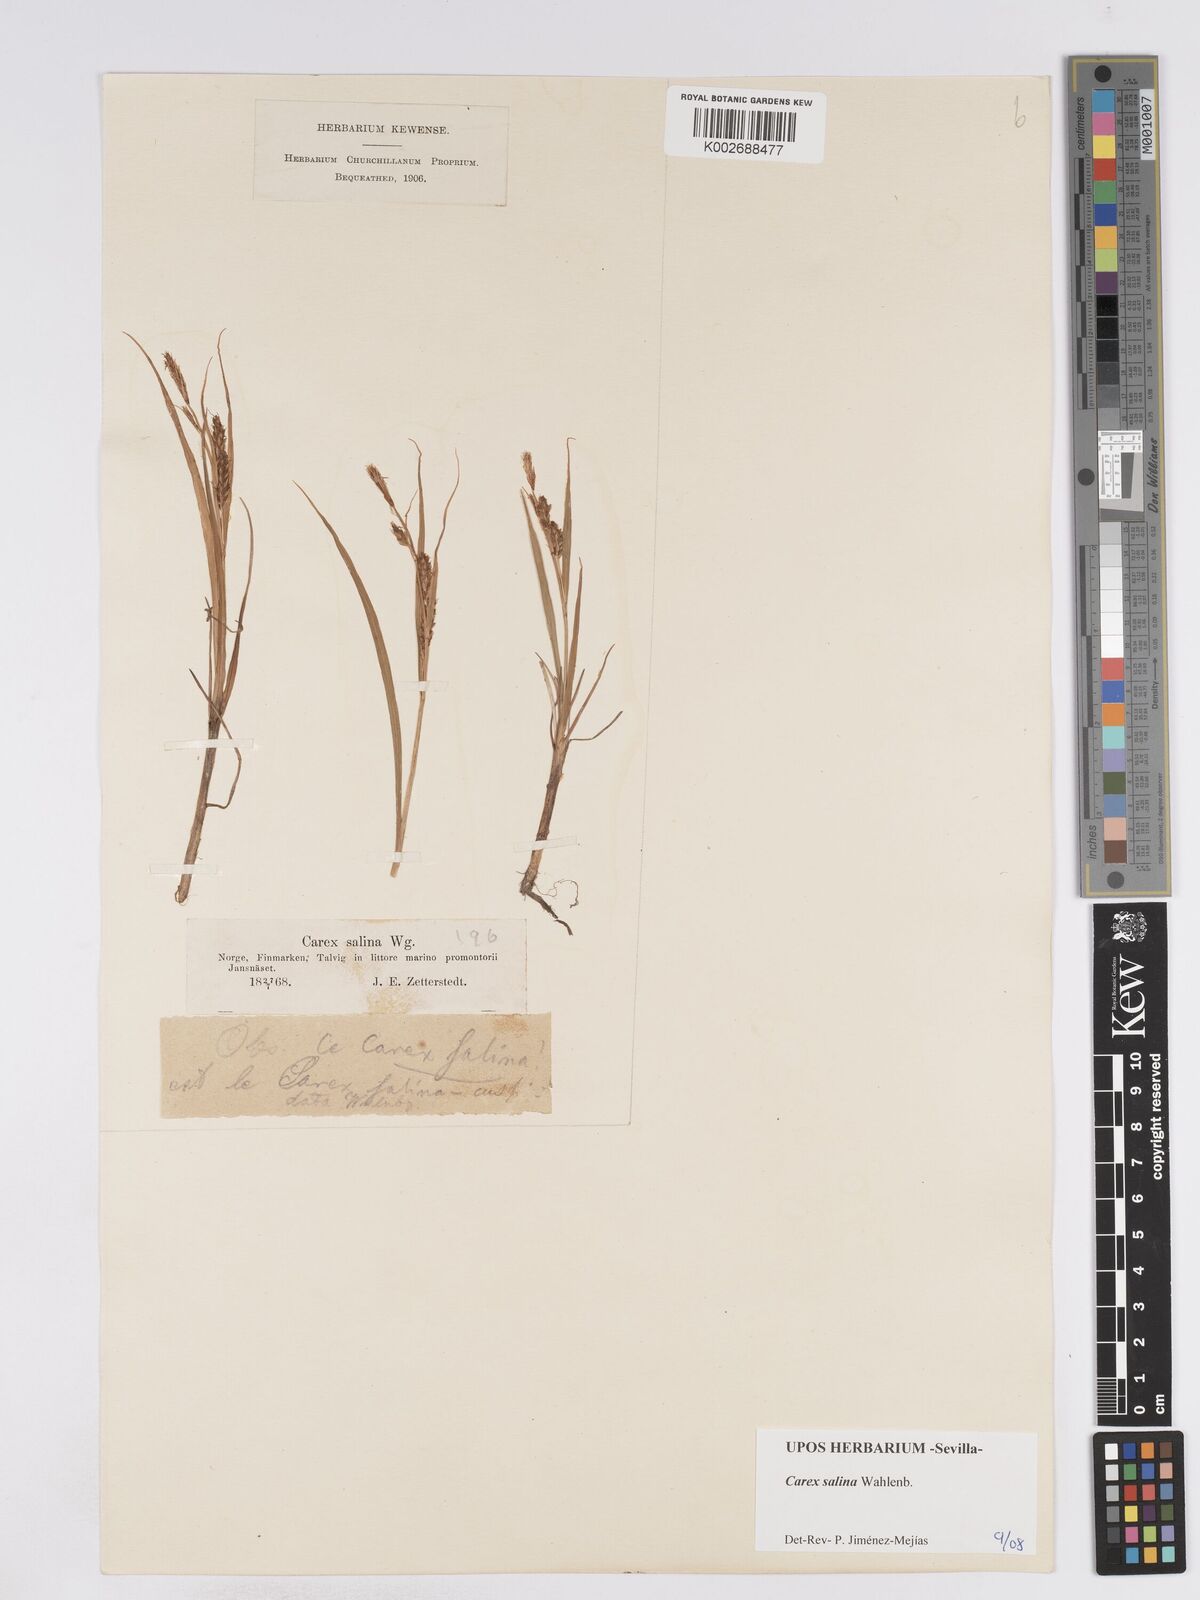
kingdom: Plantae
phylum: Tracheophyta
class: Liliopsida
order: Poales
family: Cyperaceae
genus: Carex
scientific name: Carex salina
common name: Saltmarsh sedge
